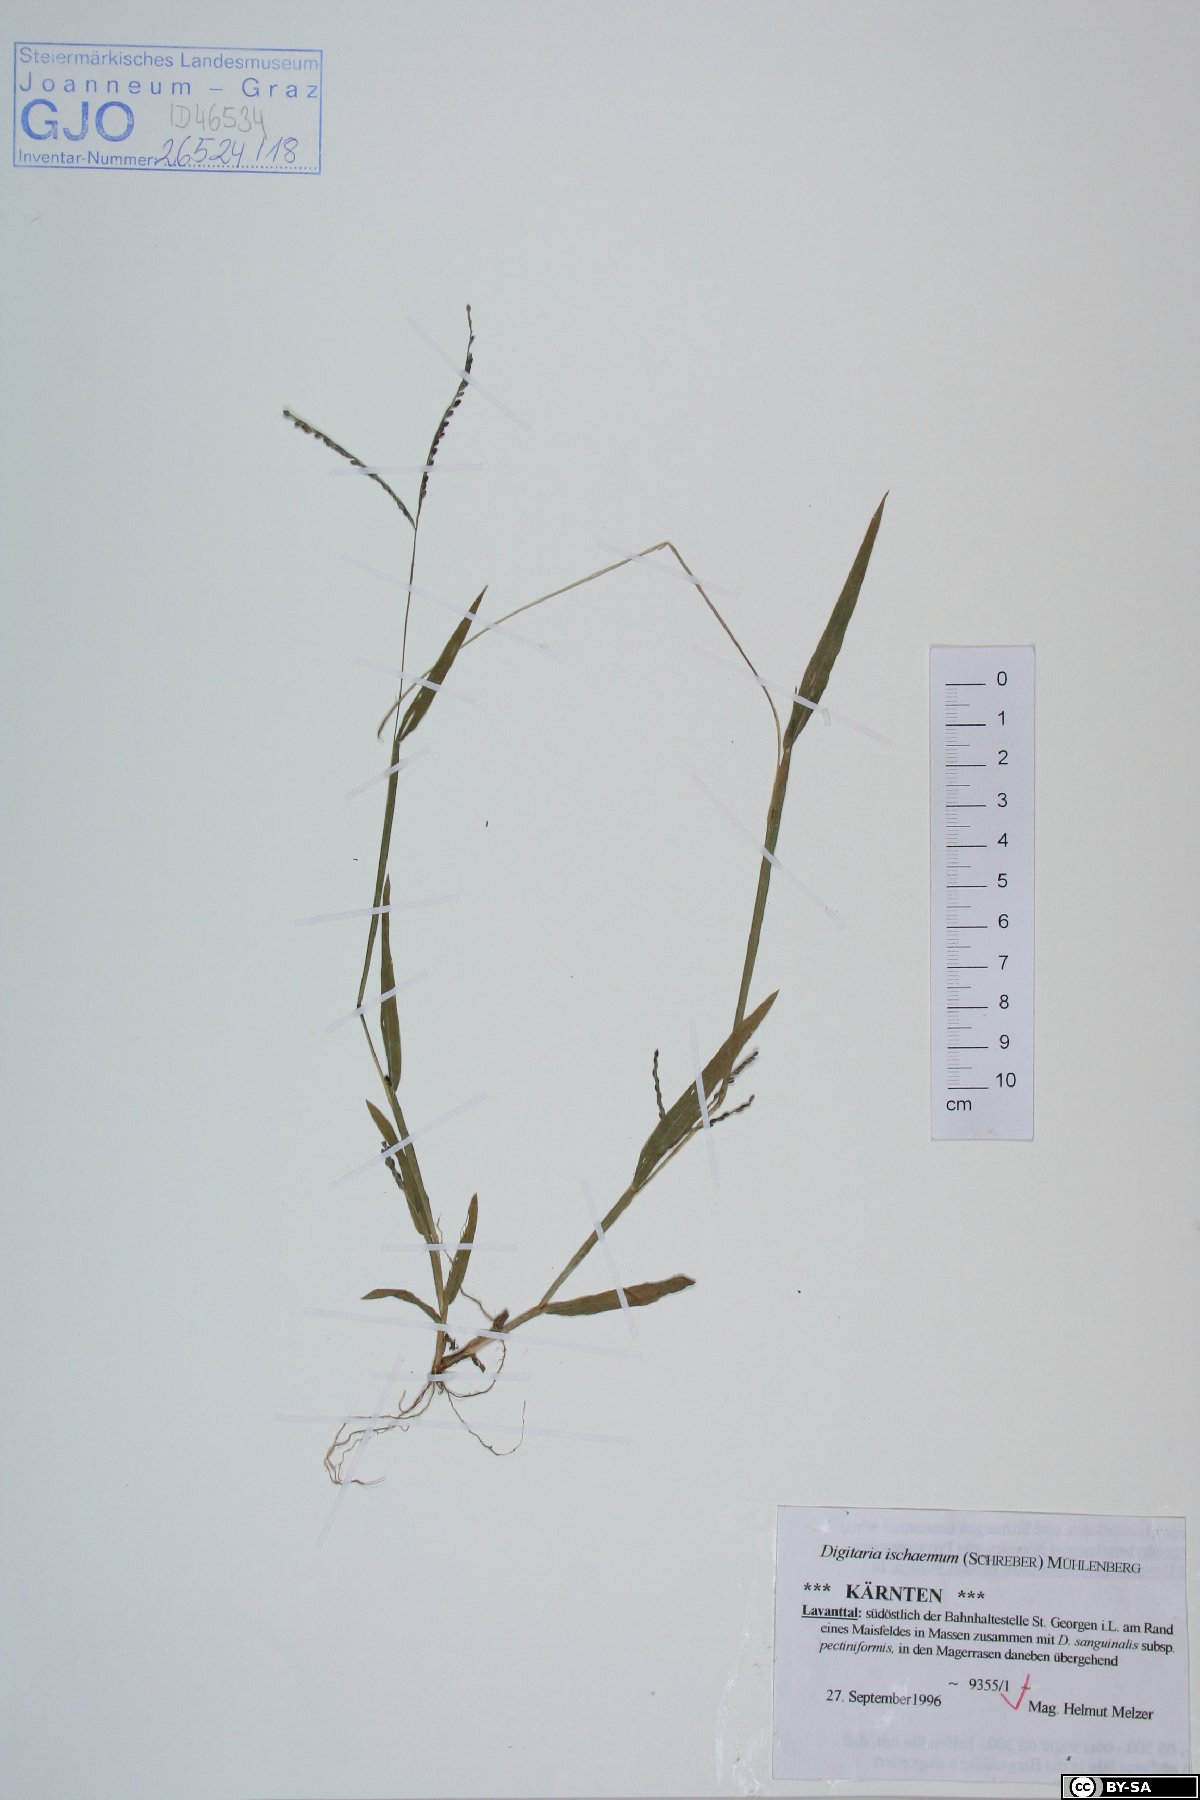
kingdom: Plantae
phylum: Tracheophyta
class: Liliopsida
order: Poales
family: Poaceae
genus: Digitaria
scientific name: Digitaria ischaemum
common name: Smooth crabgrass
